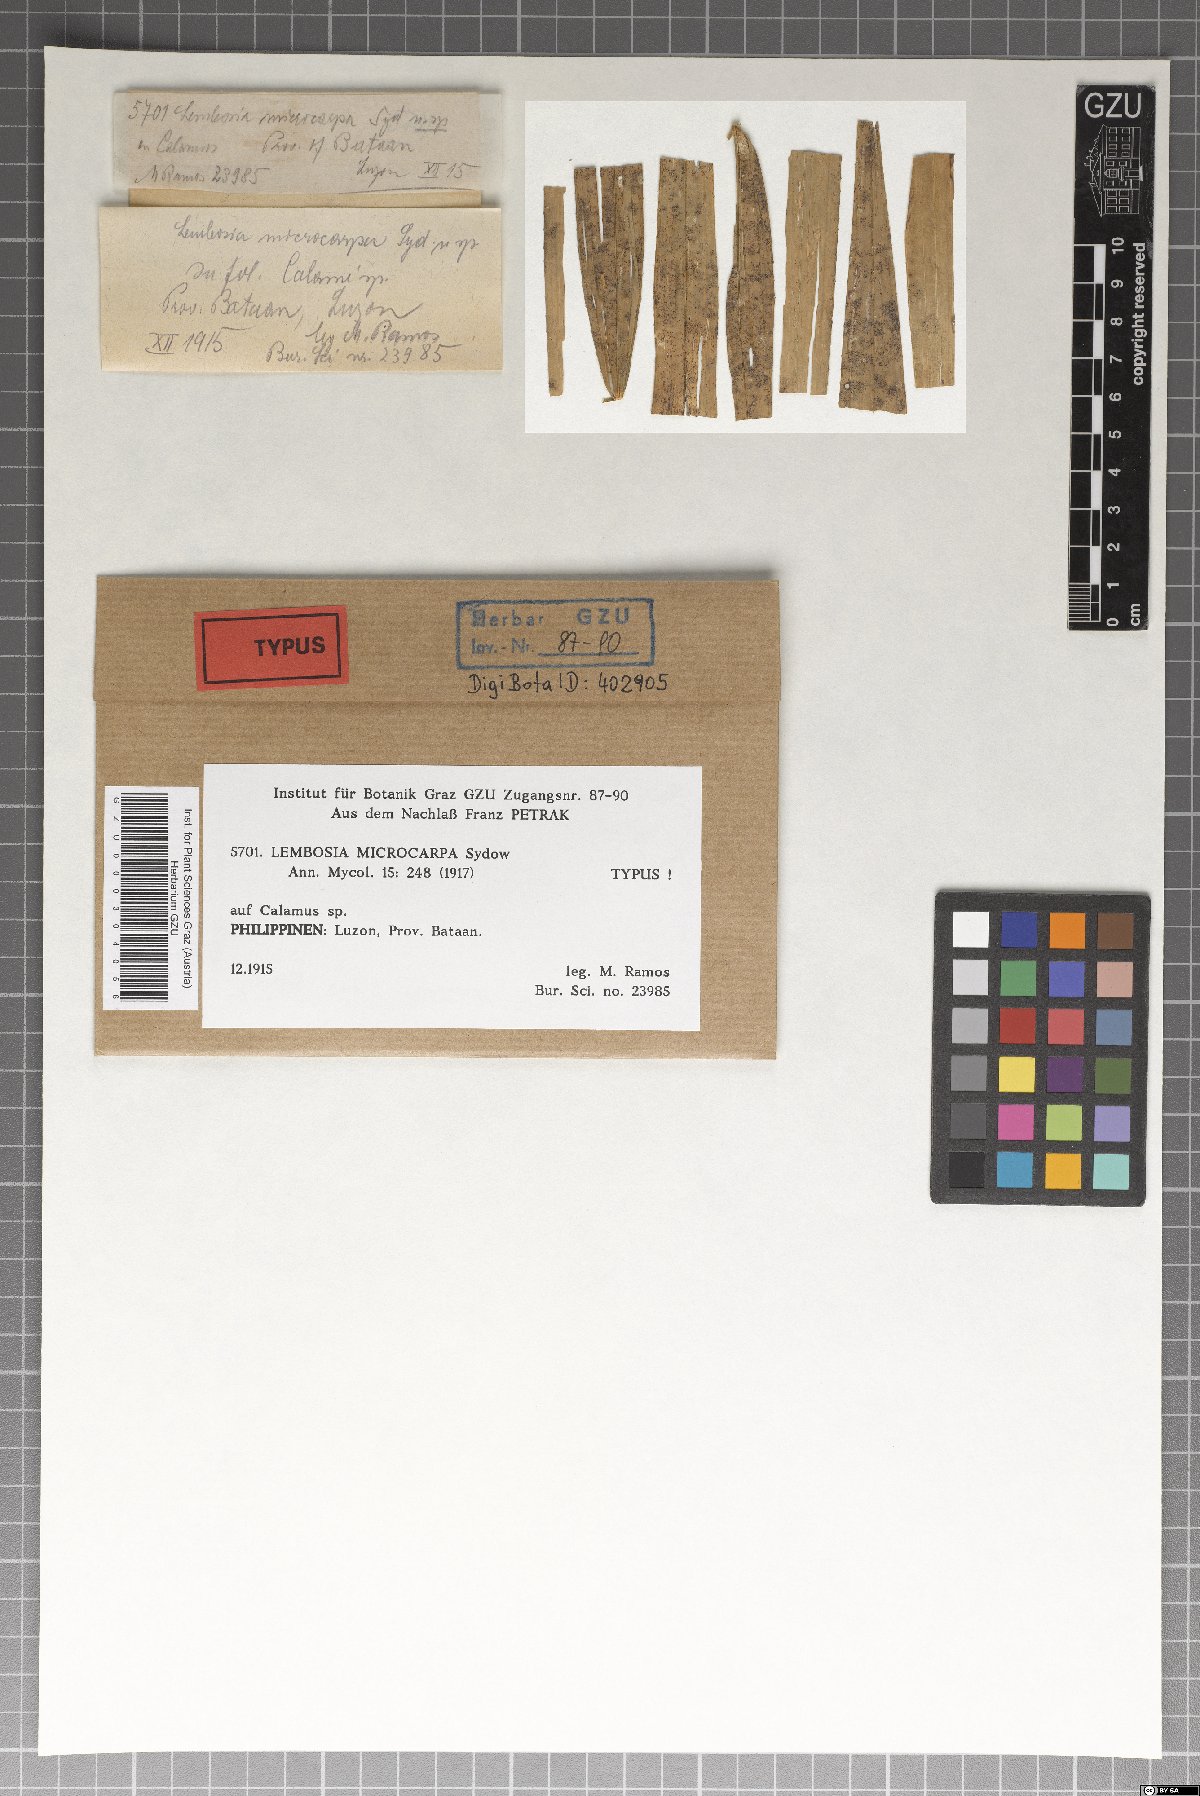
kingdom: Fungi
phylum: Ascomycota
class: Dothideomycetes
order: Asterinales
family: Asterinaceae
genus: Lembosia
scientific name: Lembosia microcarpa
